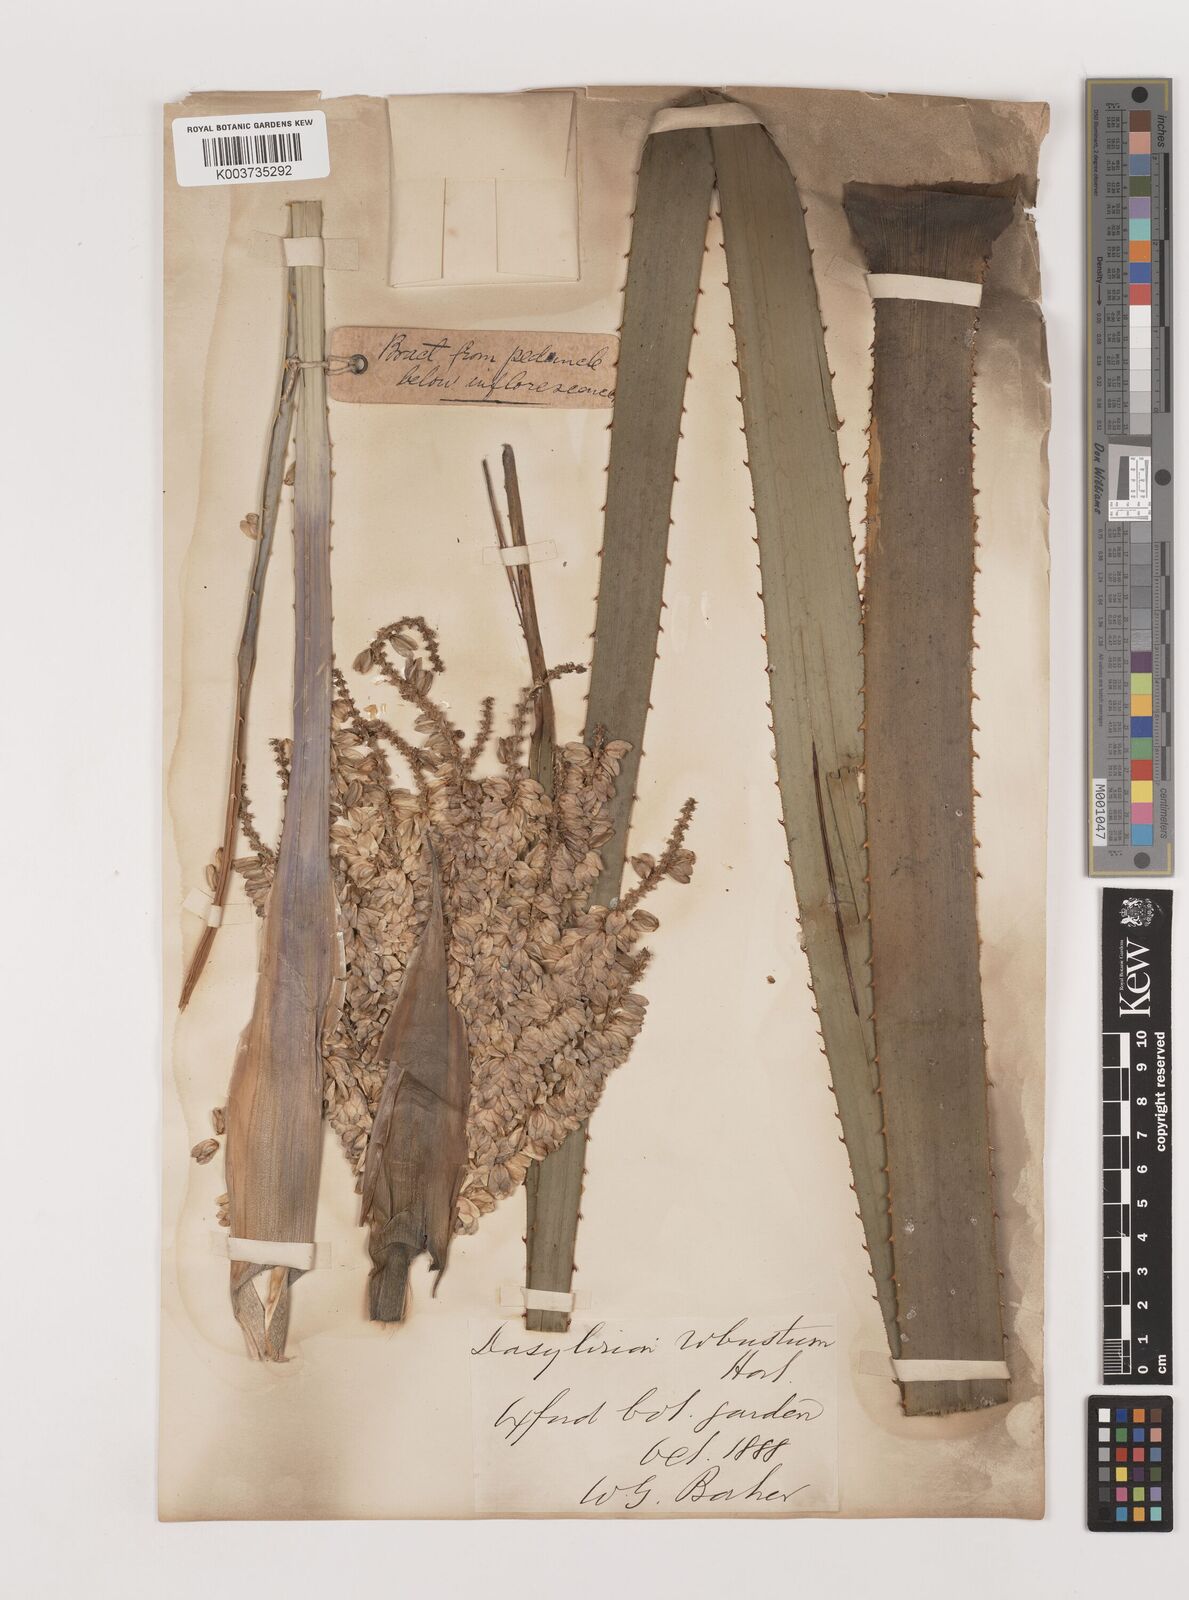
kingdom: Plantae
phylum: Tracheophyta
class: Liliopsida
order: Asparagales
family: Asparagaceae
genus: Dasylirion
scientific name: Dasylirion serratifolium
